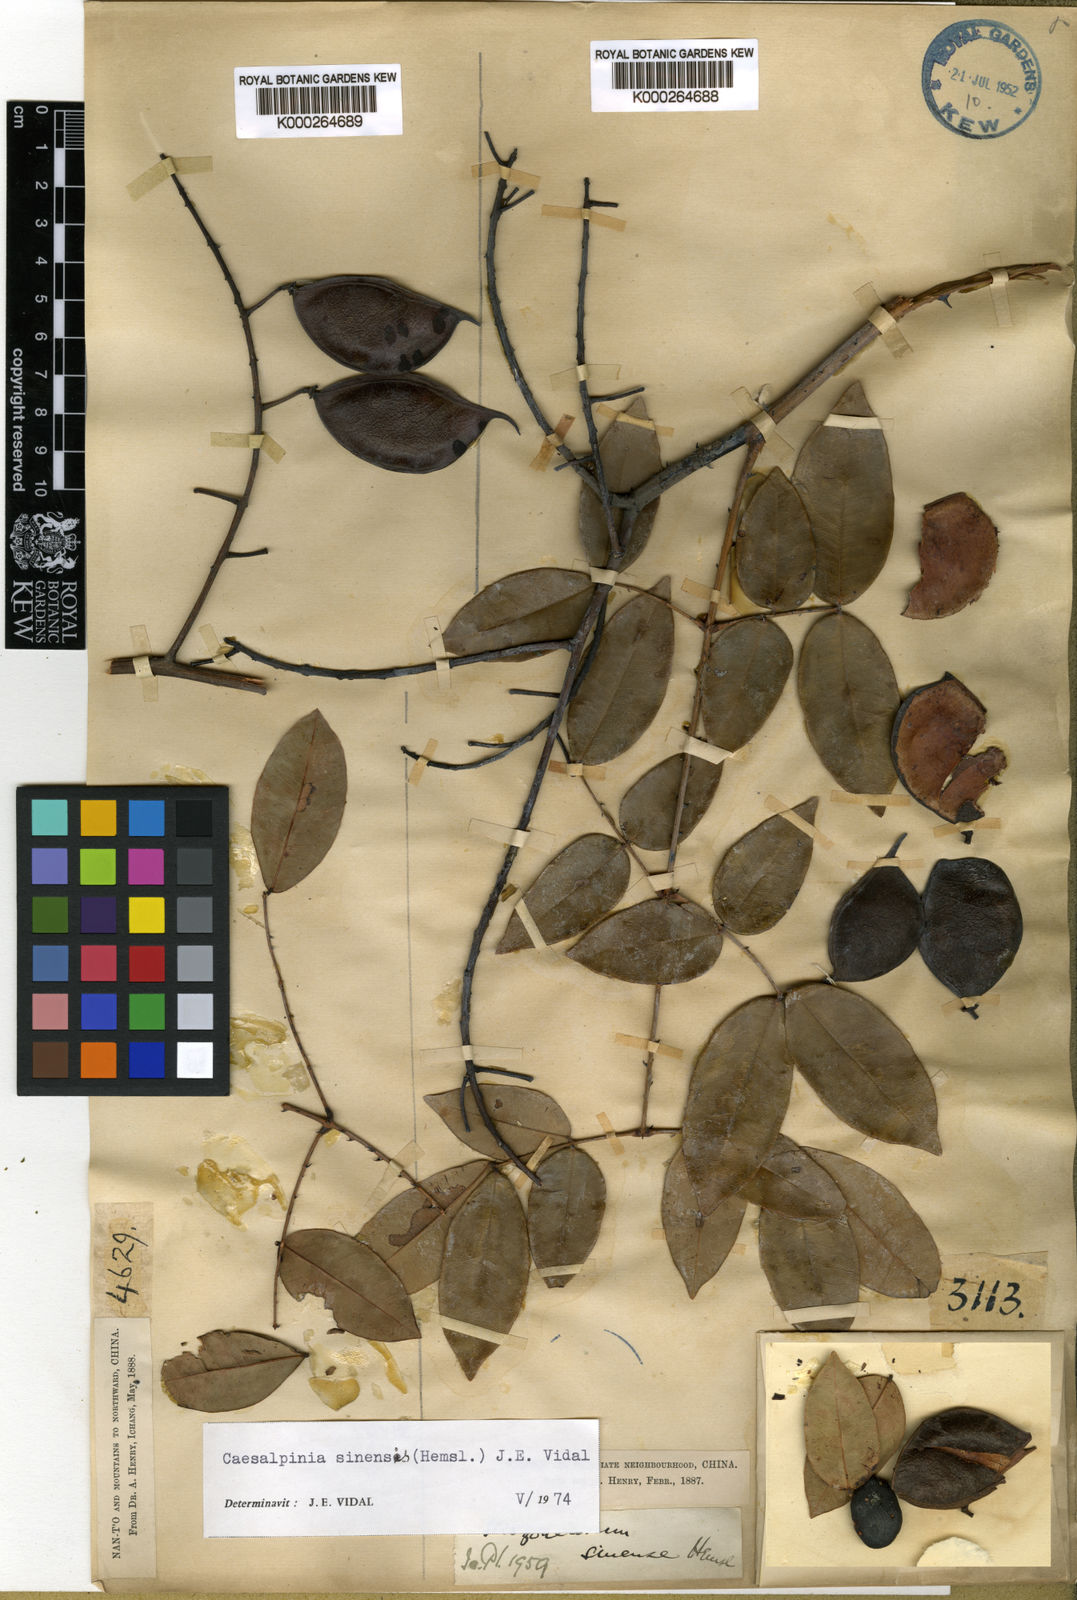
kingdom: Plantae
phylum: Tracheophyta
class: Magnoliopsida
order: Fabales
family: Fabaceae
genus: Mezoneuron
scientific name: Mezoneuron sinense
